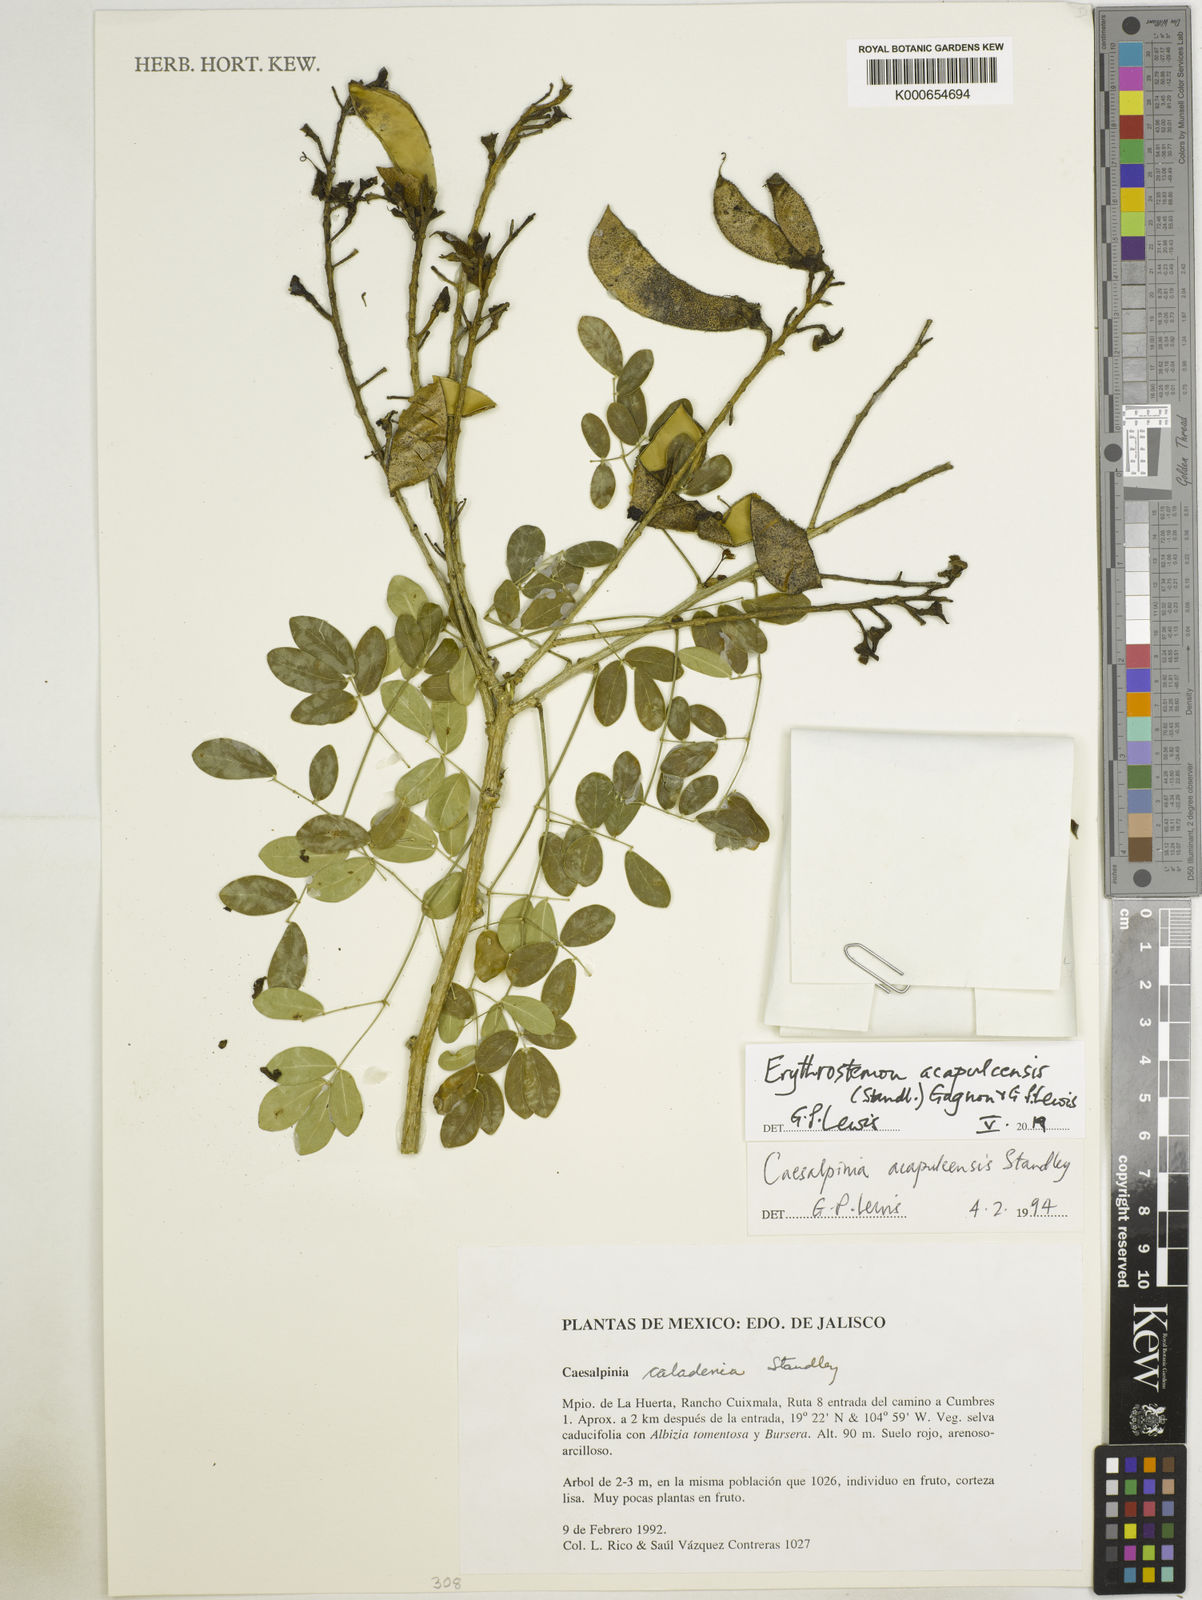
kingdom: Plantae
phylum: Tracheophyta
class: Magnoliopsida
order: Fabales
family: Fabaceae
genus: Erythrostemon
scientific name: Erythrostemon acapulcensis
